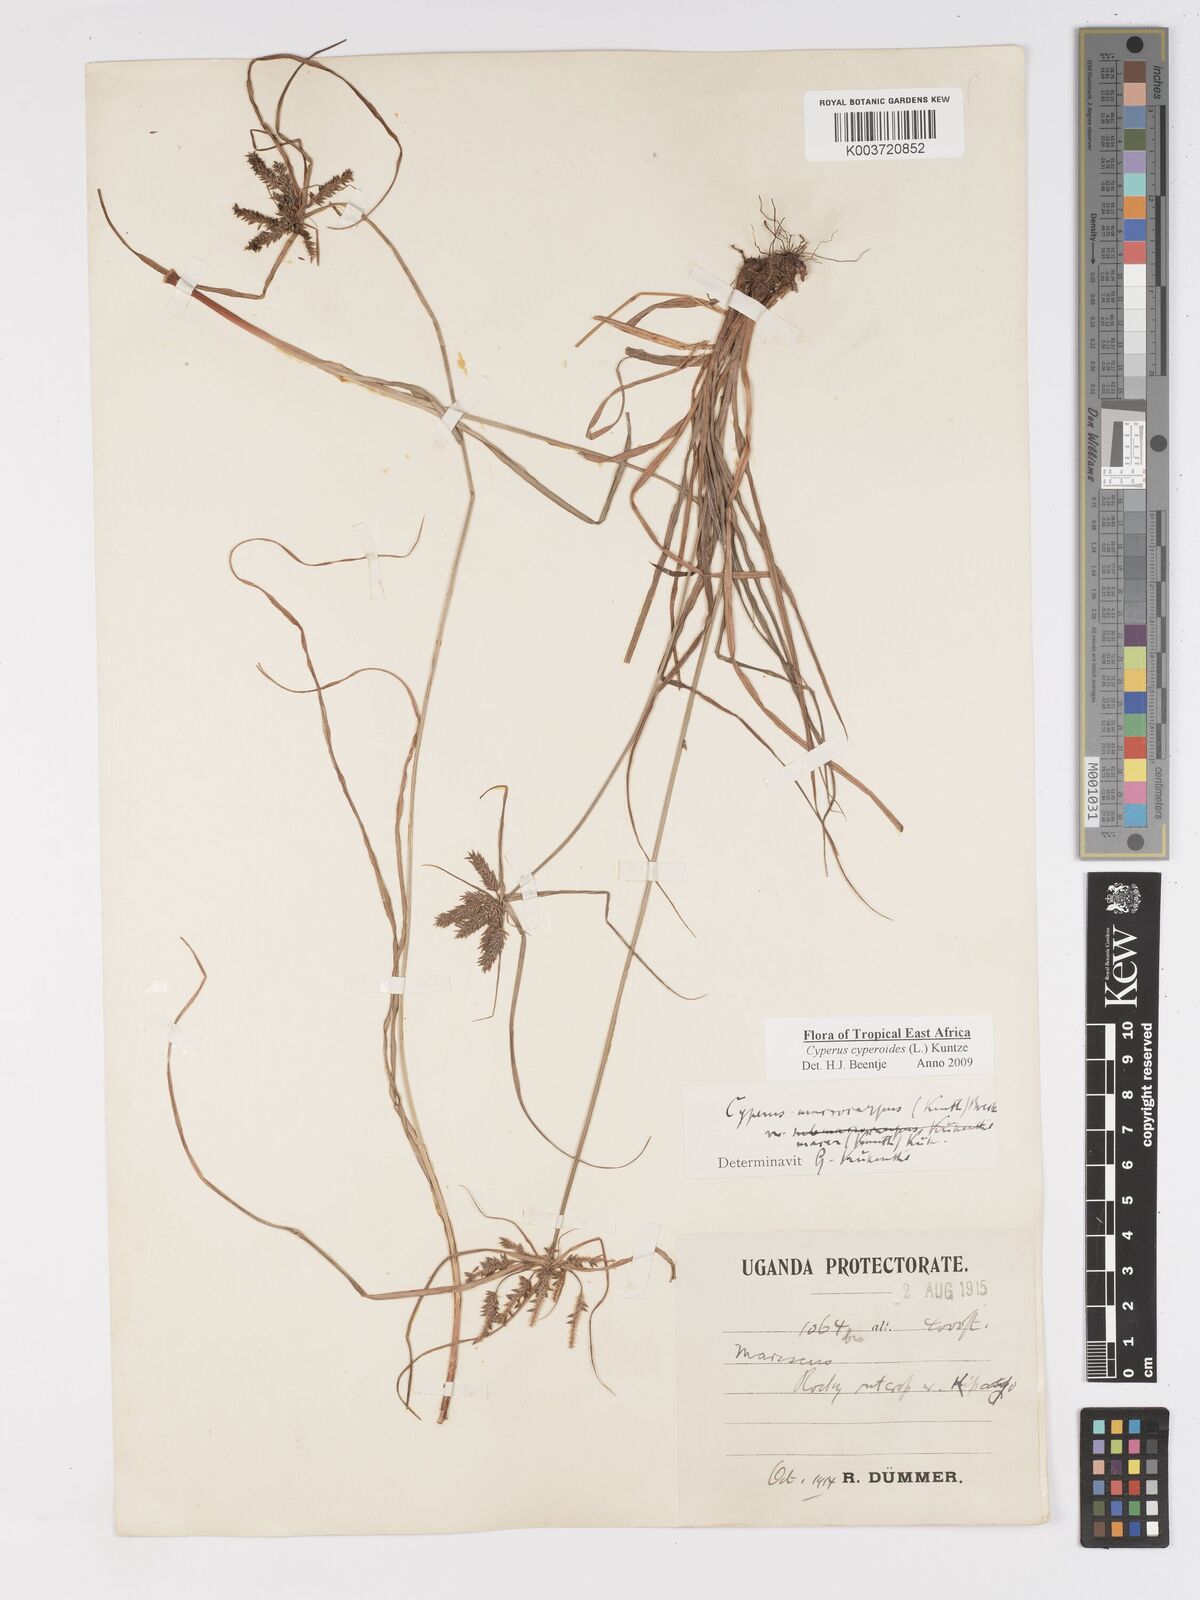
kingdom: Plantae
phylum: Tracheophyta
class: Liliopsida
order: Poales
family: Cyperaceae
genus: Cyperus
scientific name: Cyperus pseudoflavus
